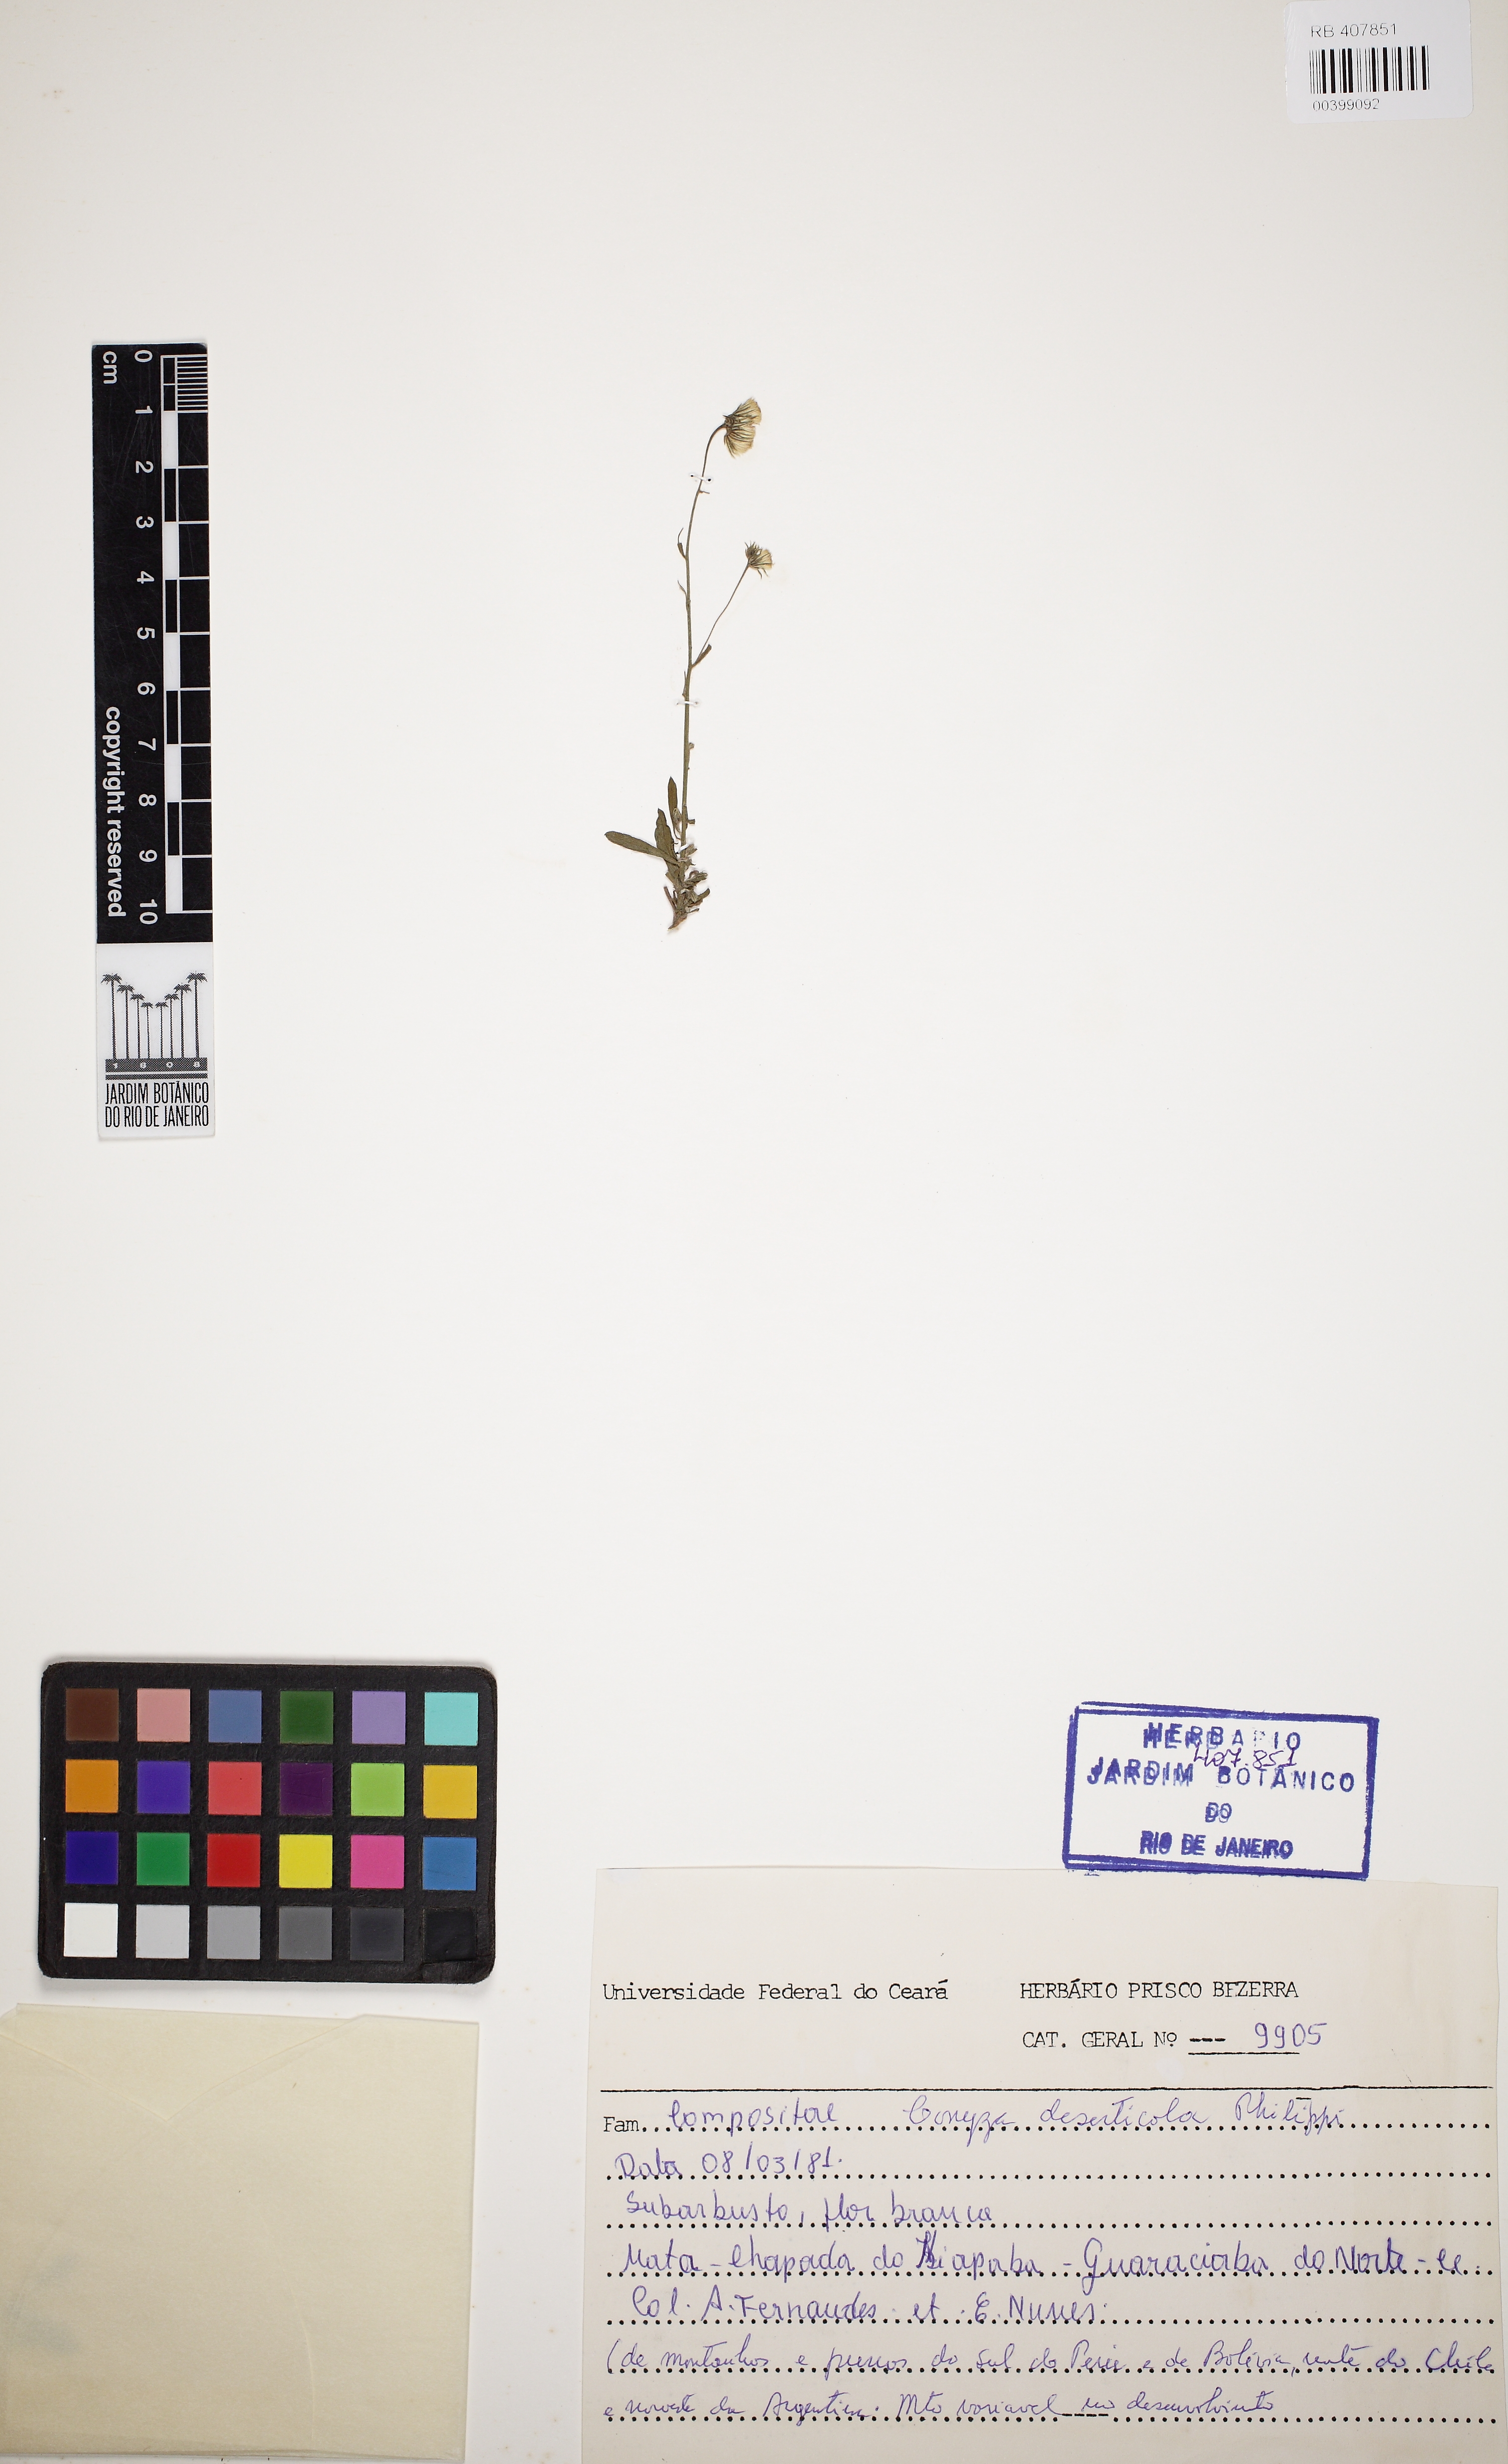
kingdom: Plantae
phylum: Tracheophyta
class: Magnoliopsida
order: Asterales
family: Asteraceae
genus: Erigeron
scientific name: Erigeron deserticolus
